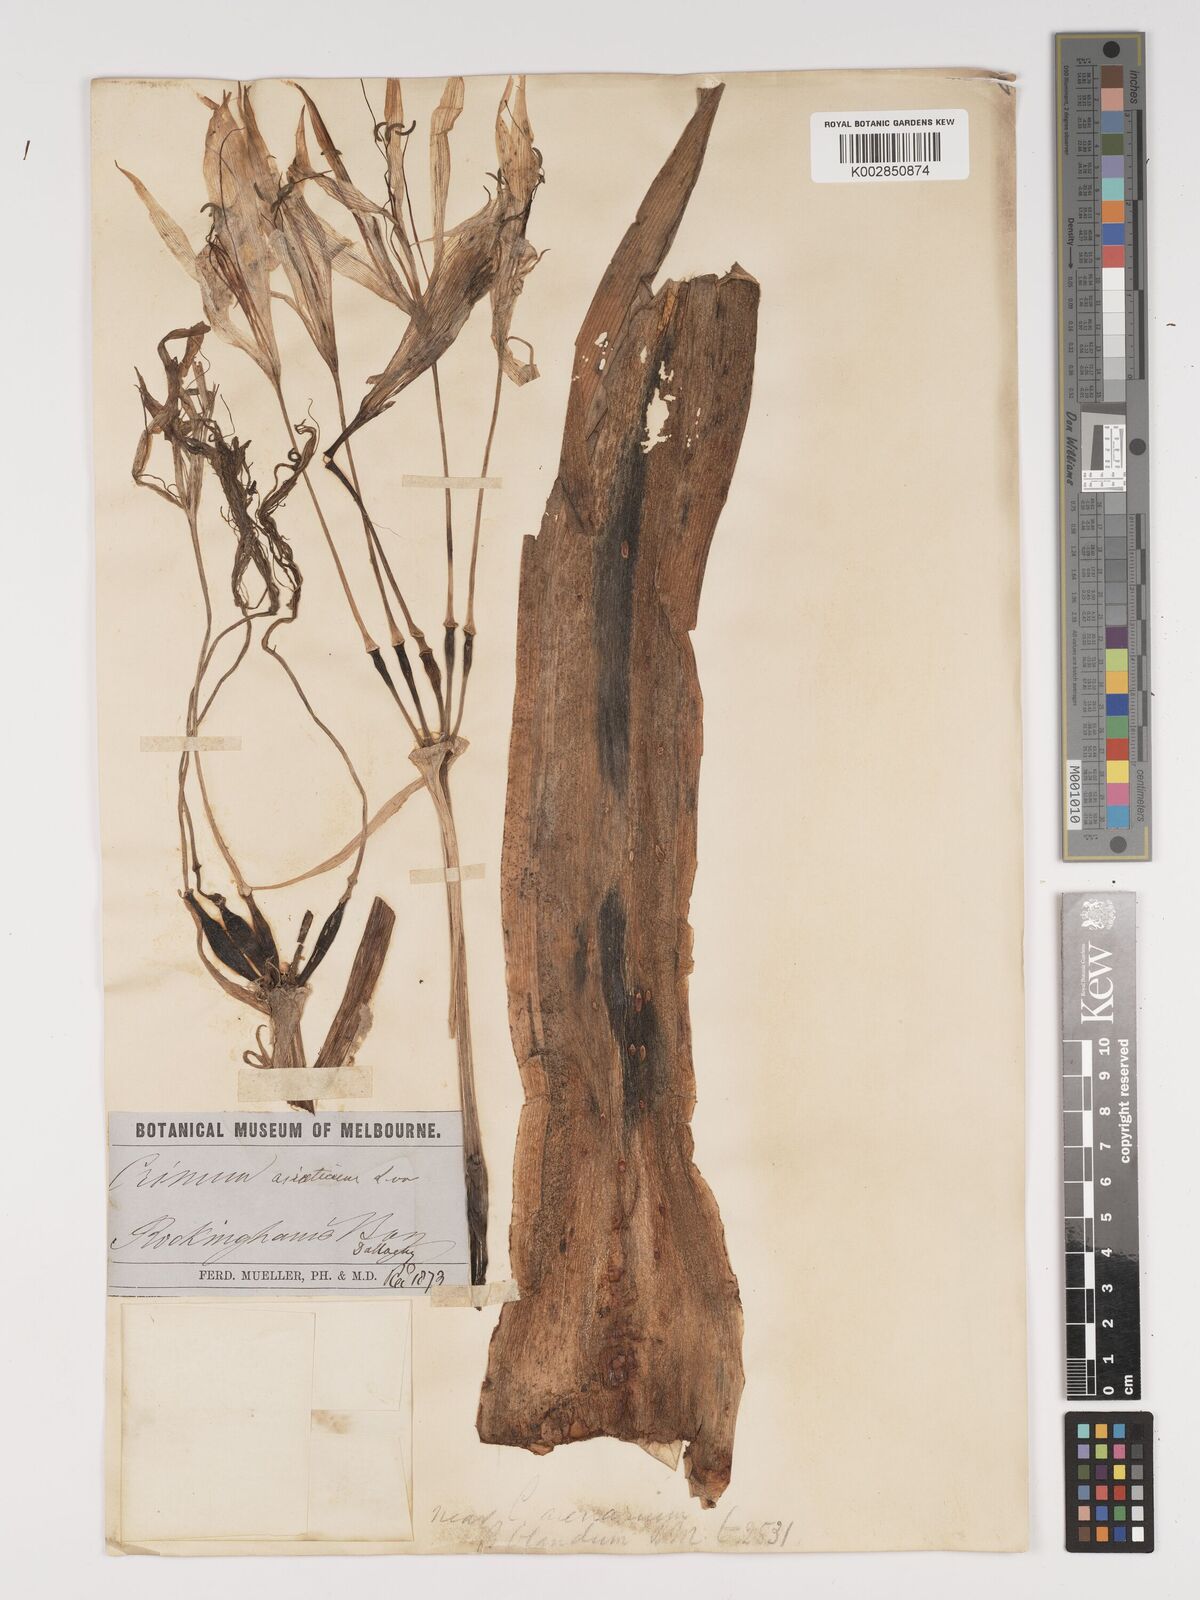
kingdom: Plantae
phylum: Tracheophyta
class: Liliopsida
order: Asparagales
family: Amaryllidaceae
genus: Crinum
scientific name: Crinum asiaticum
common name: Poisonbulb
